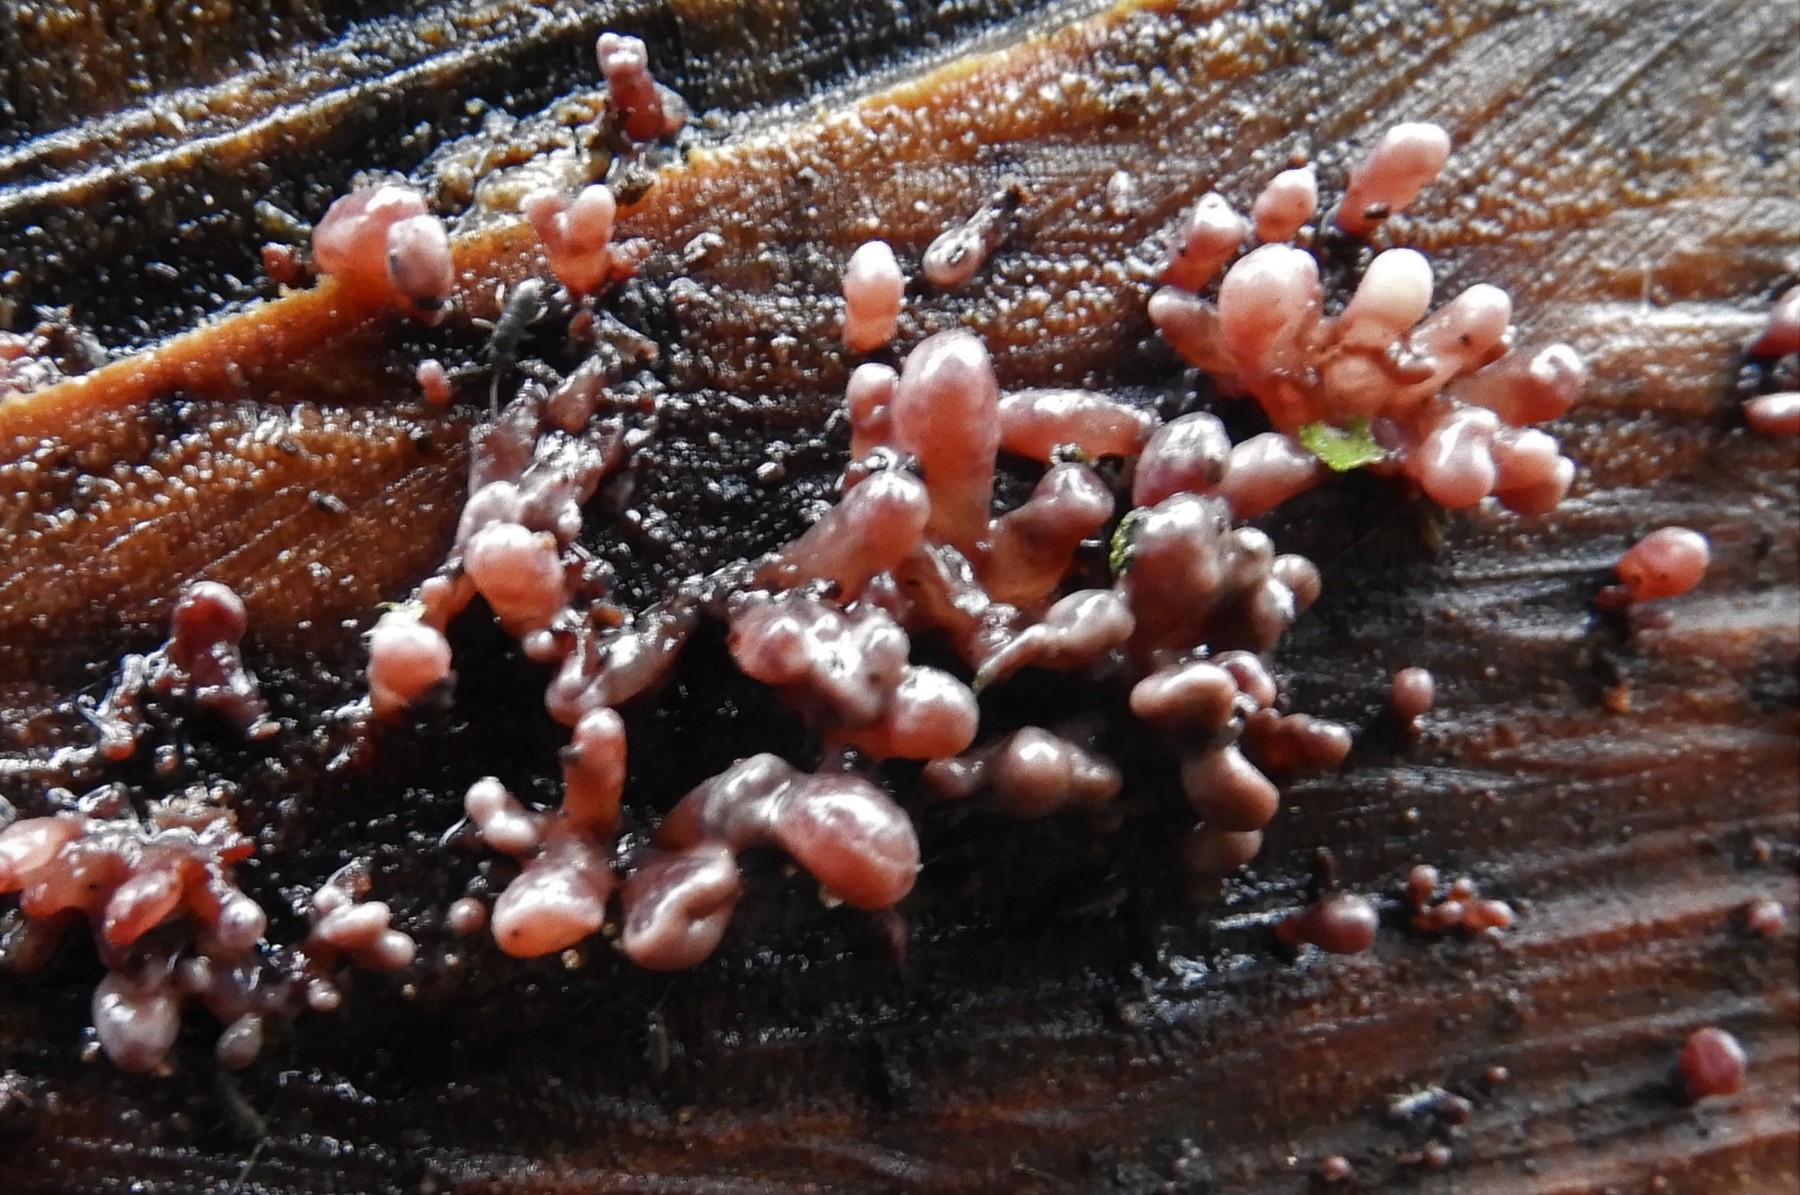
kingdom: Fungi
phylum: Ascomycota
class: Leotiomycetes
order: Helotiales
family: Gelatinodiscaceae
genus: Ascocoryne
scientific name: Ascocoryne sarcoides
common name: rødlilla sejskive
